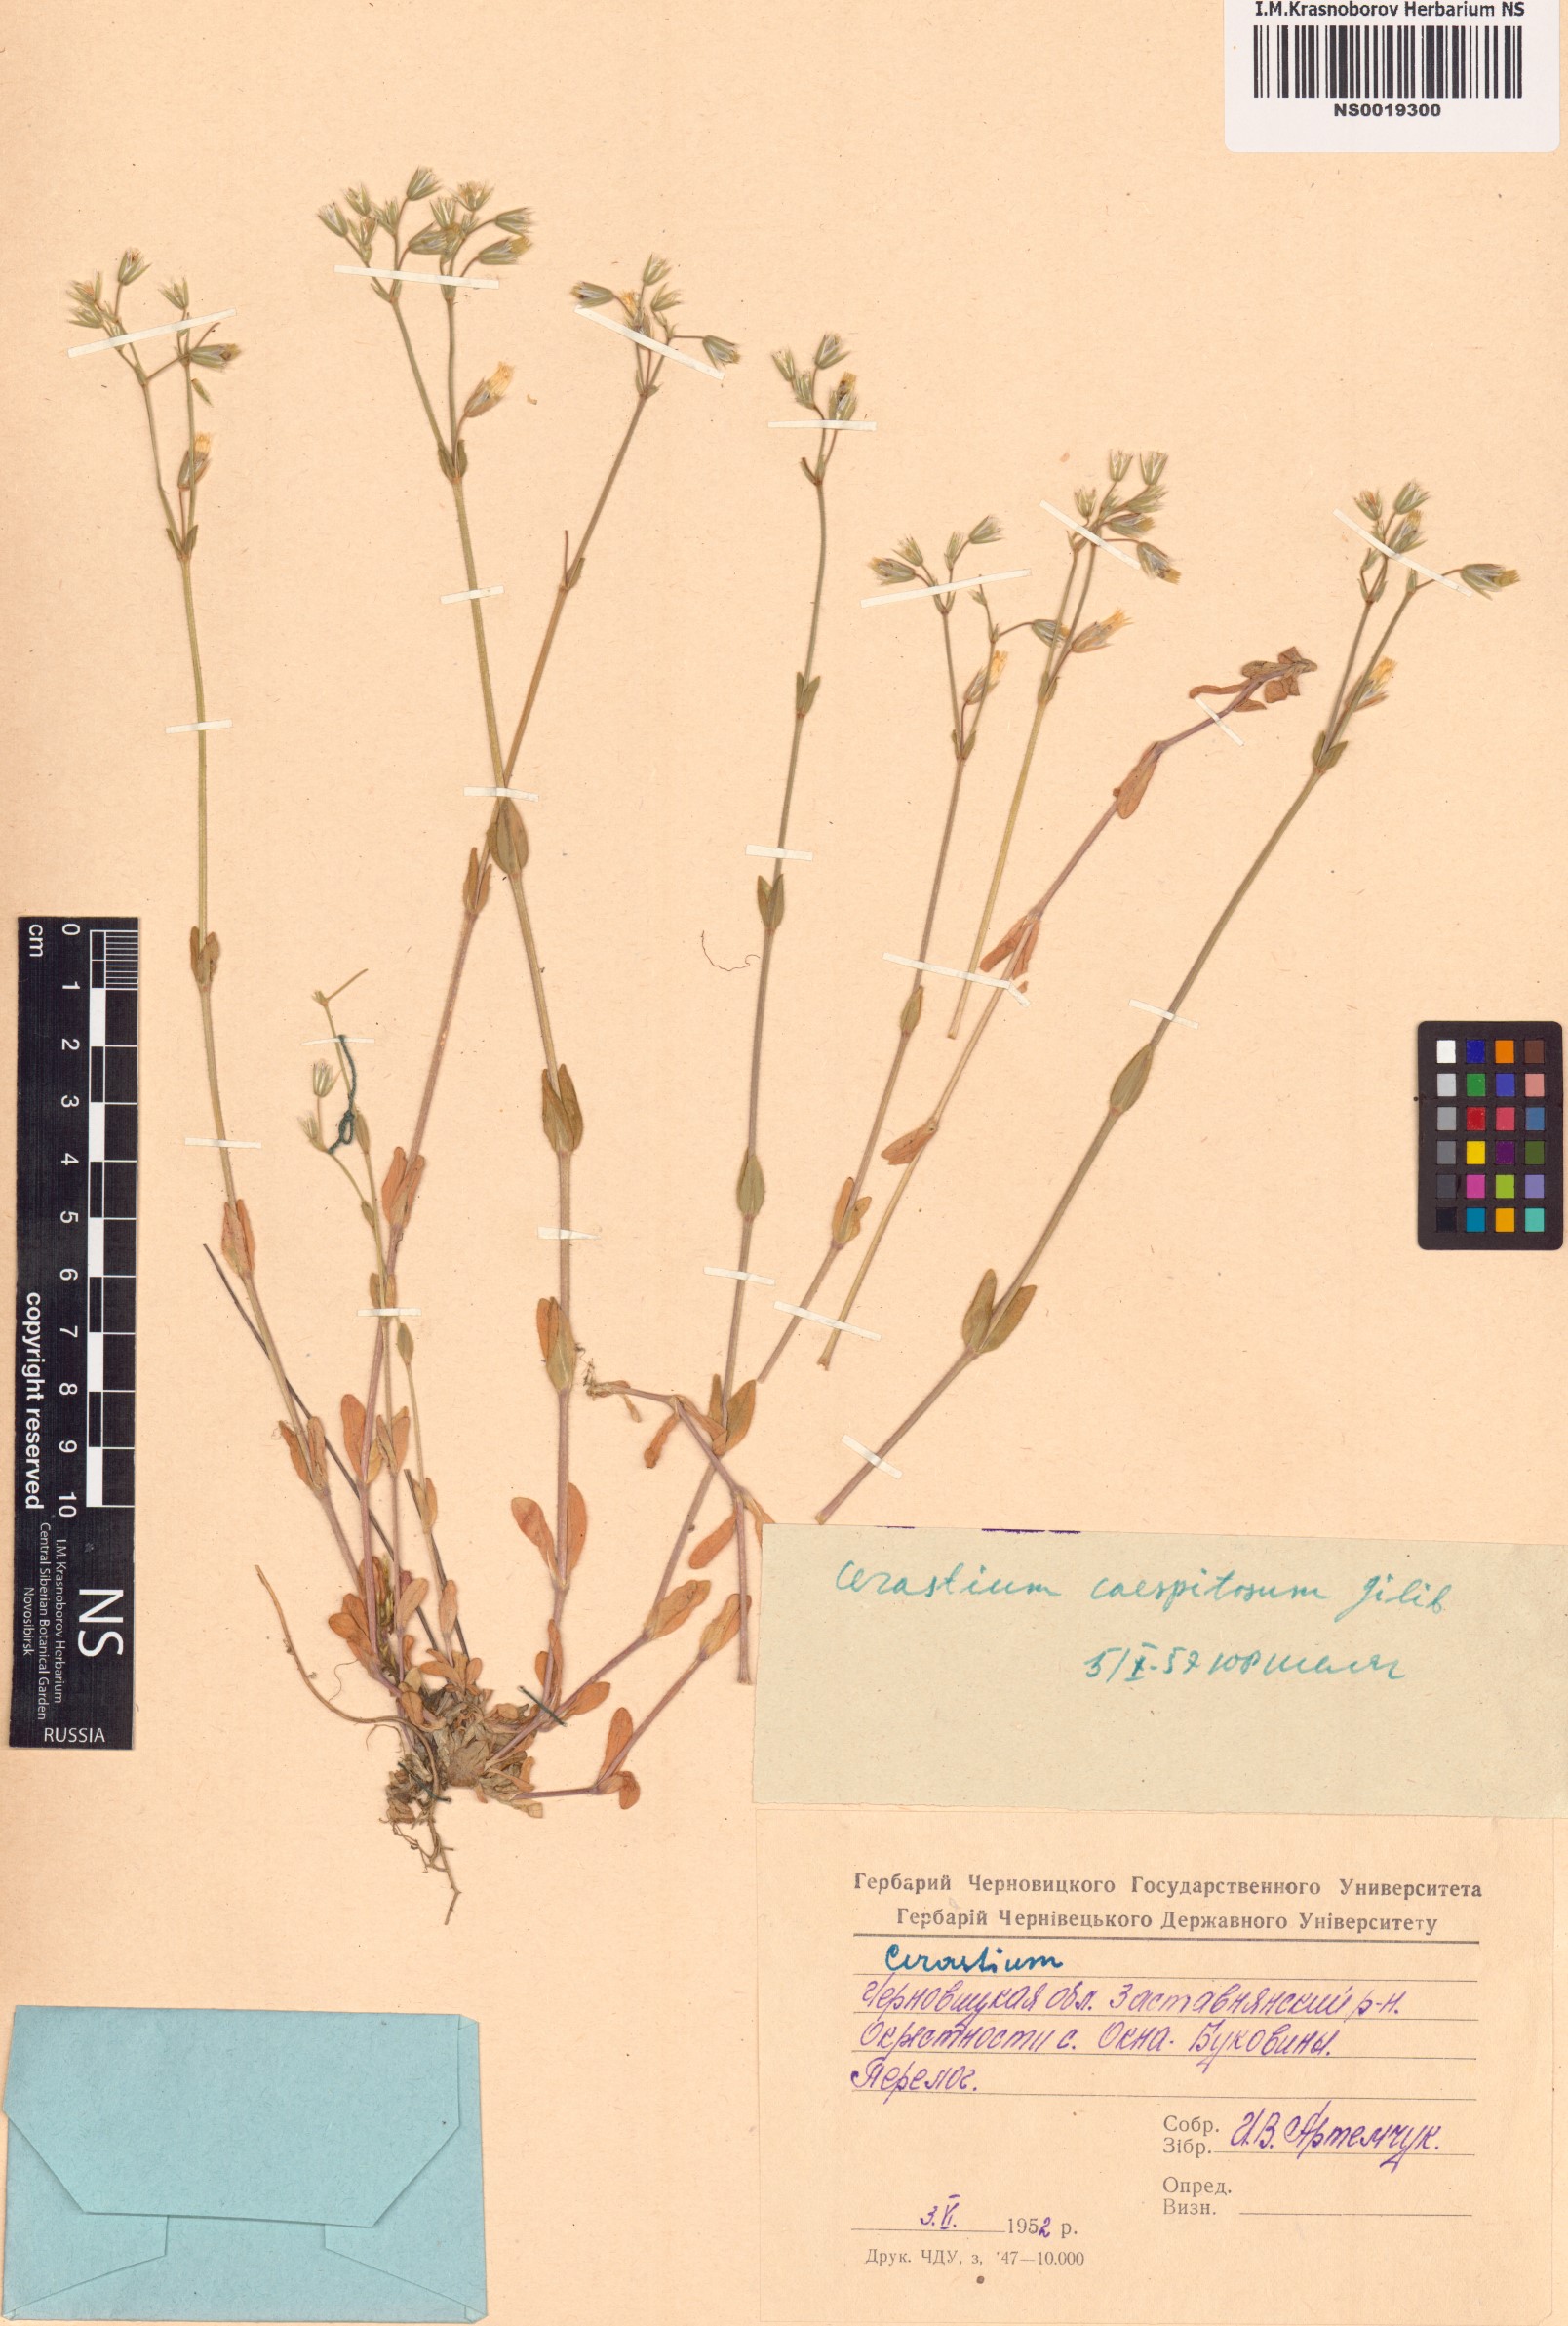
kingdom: Plantae
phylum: Tracheophyta
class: Magnoliopsida
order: Caryophyllales
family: Caryophyllaceae
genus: Cerastium
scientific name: Cerastium
